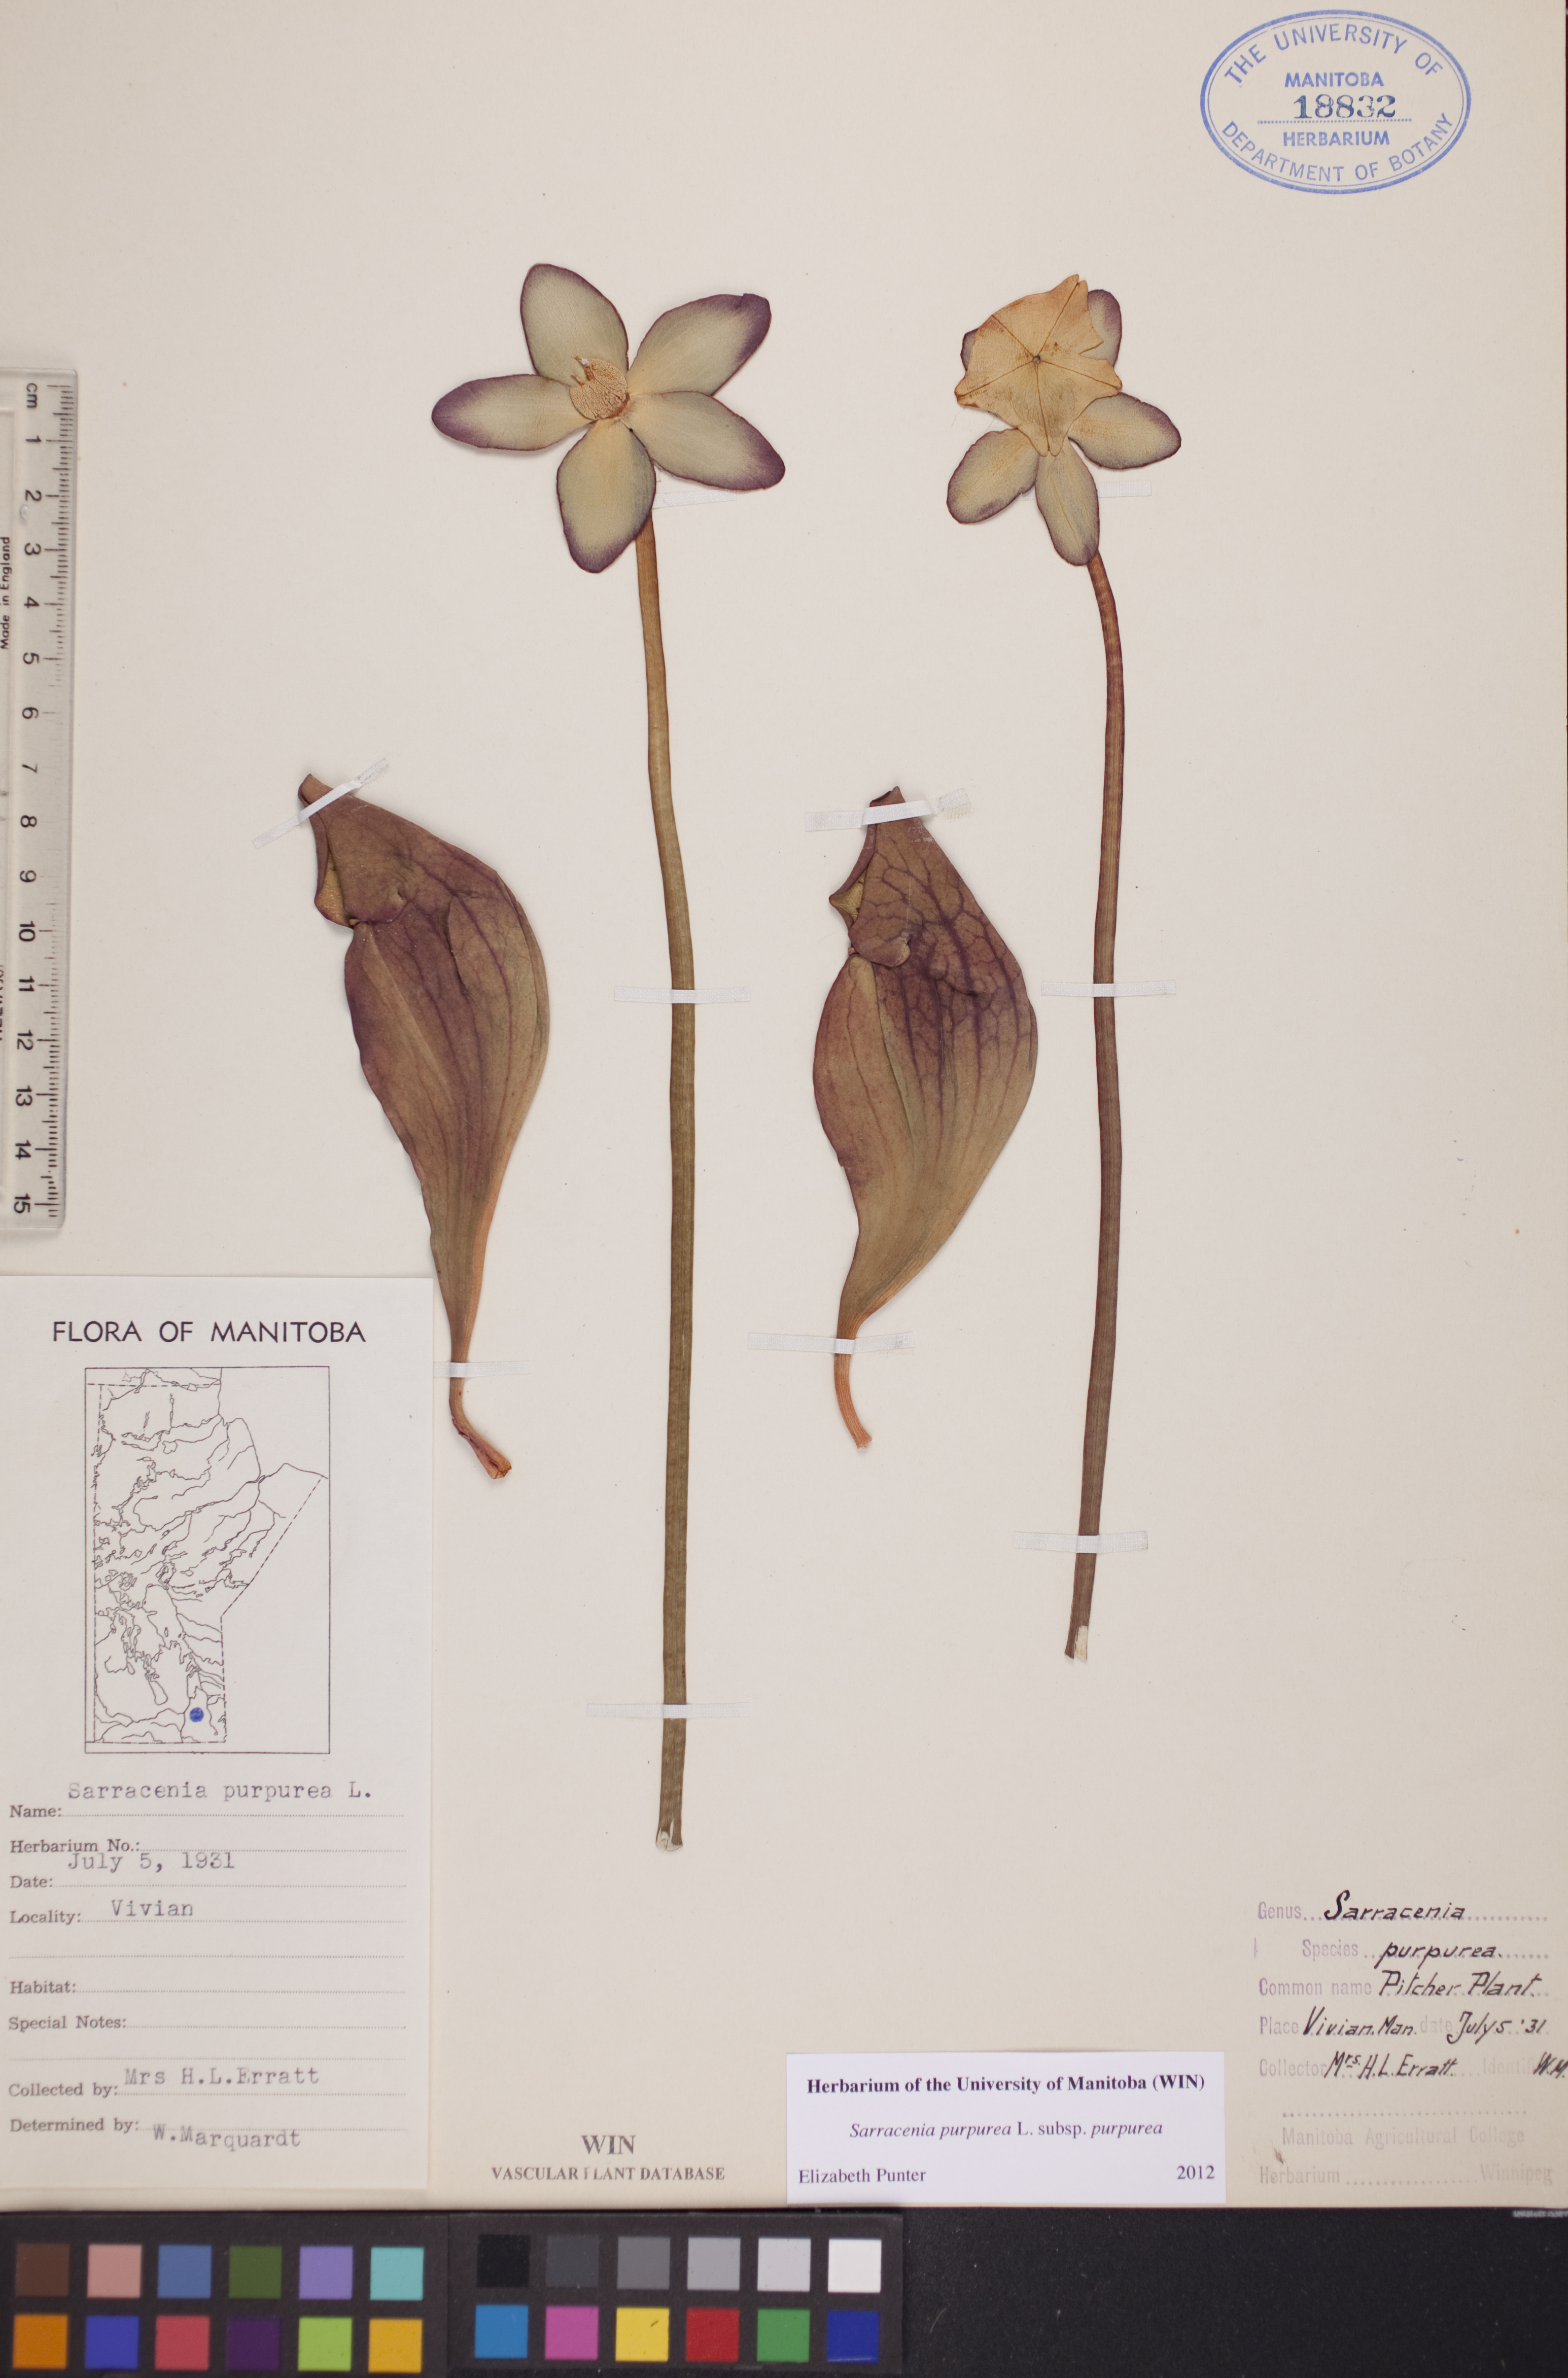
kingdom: Plantae
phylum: Tracheophyta
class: Magnoliopsida
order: Ericales
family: Sarraceniaceae
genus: Sarracenia
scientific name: Sarracenia purpurea
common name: Pitcherplant
